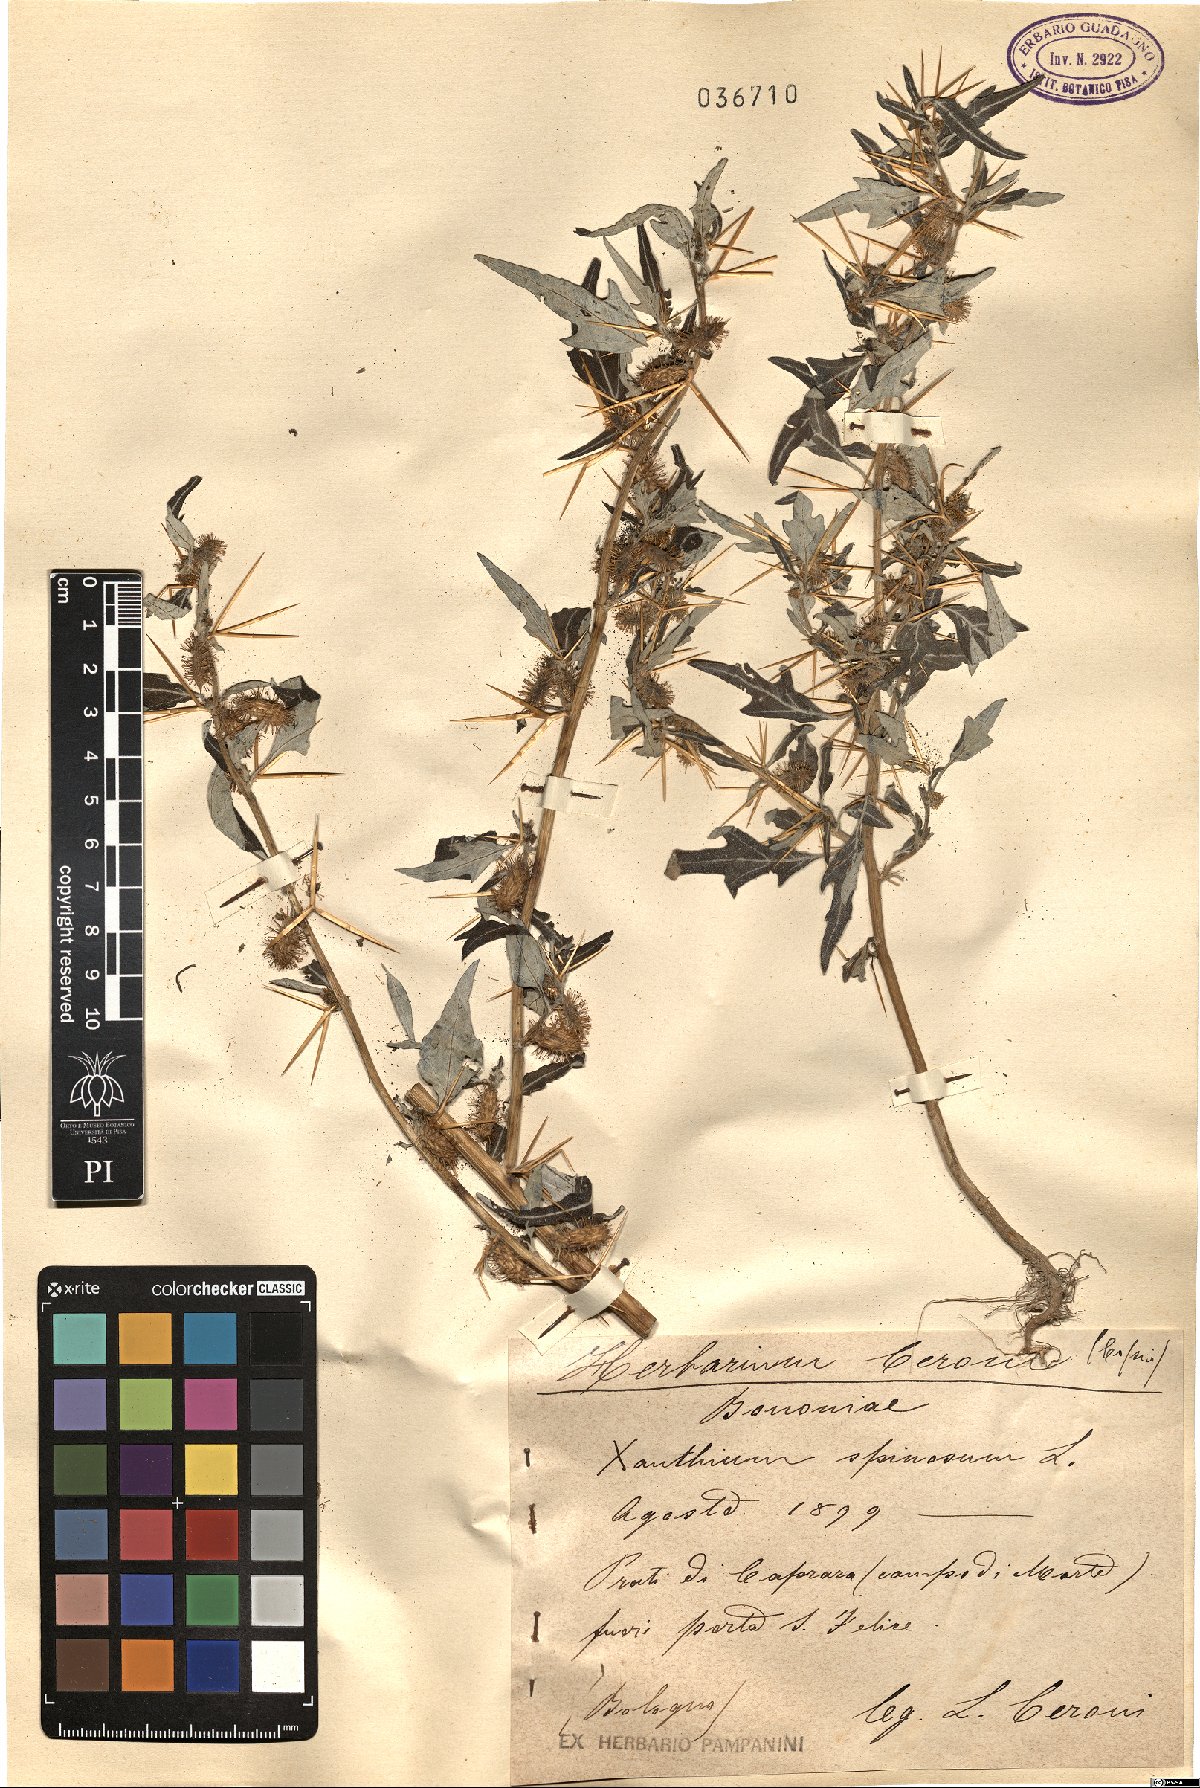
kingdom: Plantae
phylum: Tracheophyta
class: Magnoliopsida
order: Asterales
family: Asteraceae
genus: Xanthium
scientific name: Xanthium spinosum
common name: Spiny cocklebur
